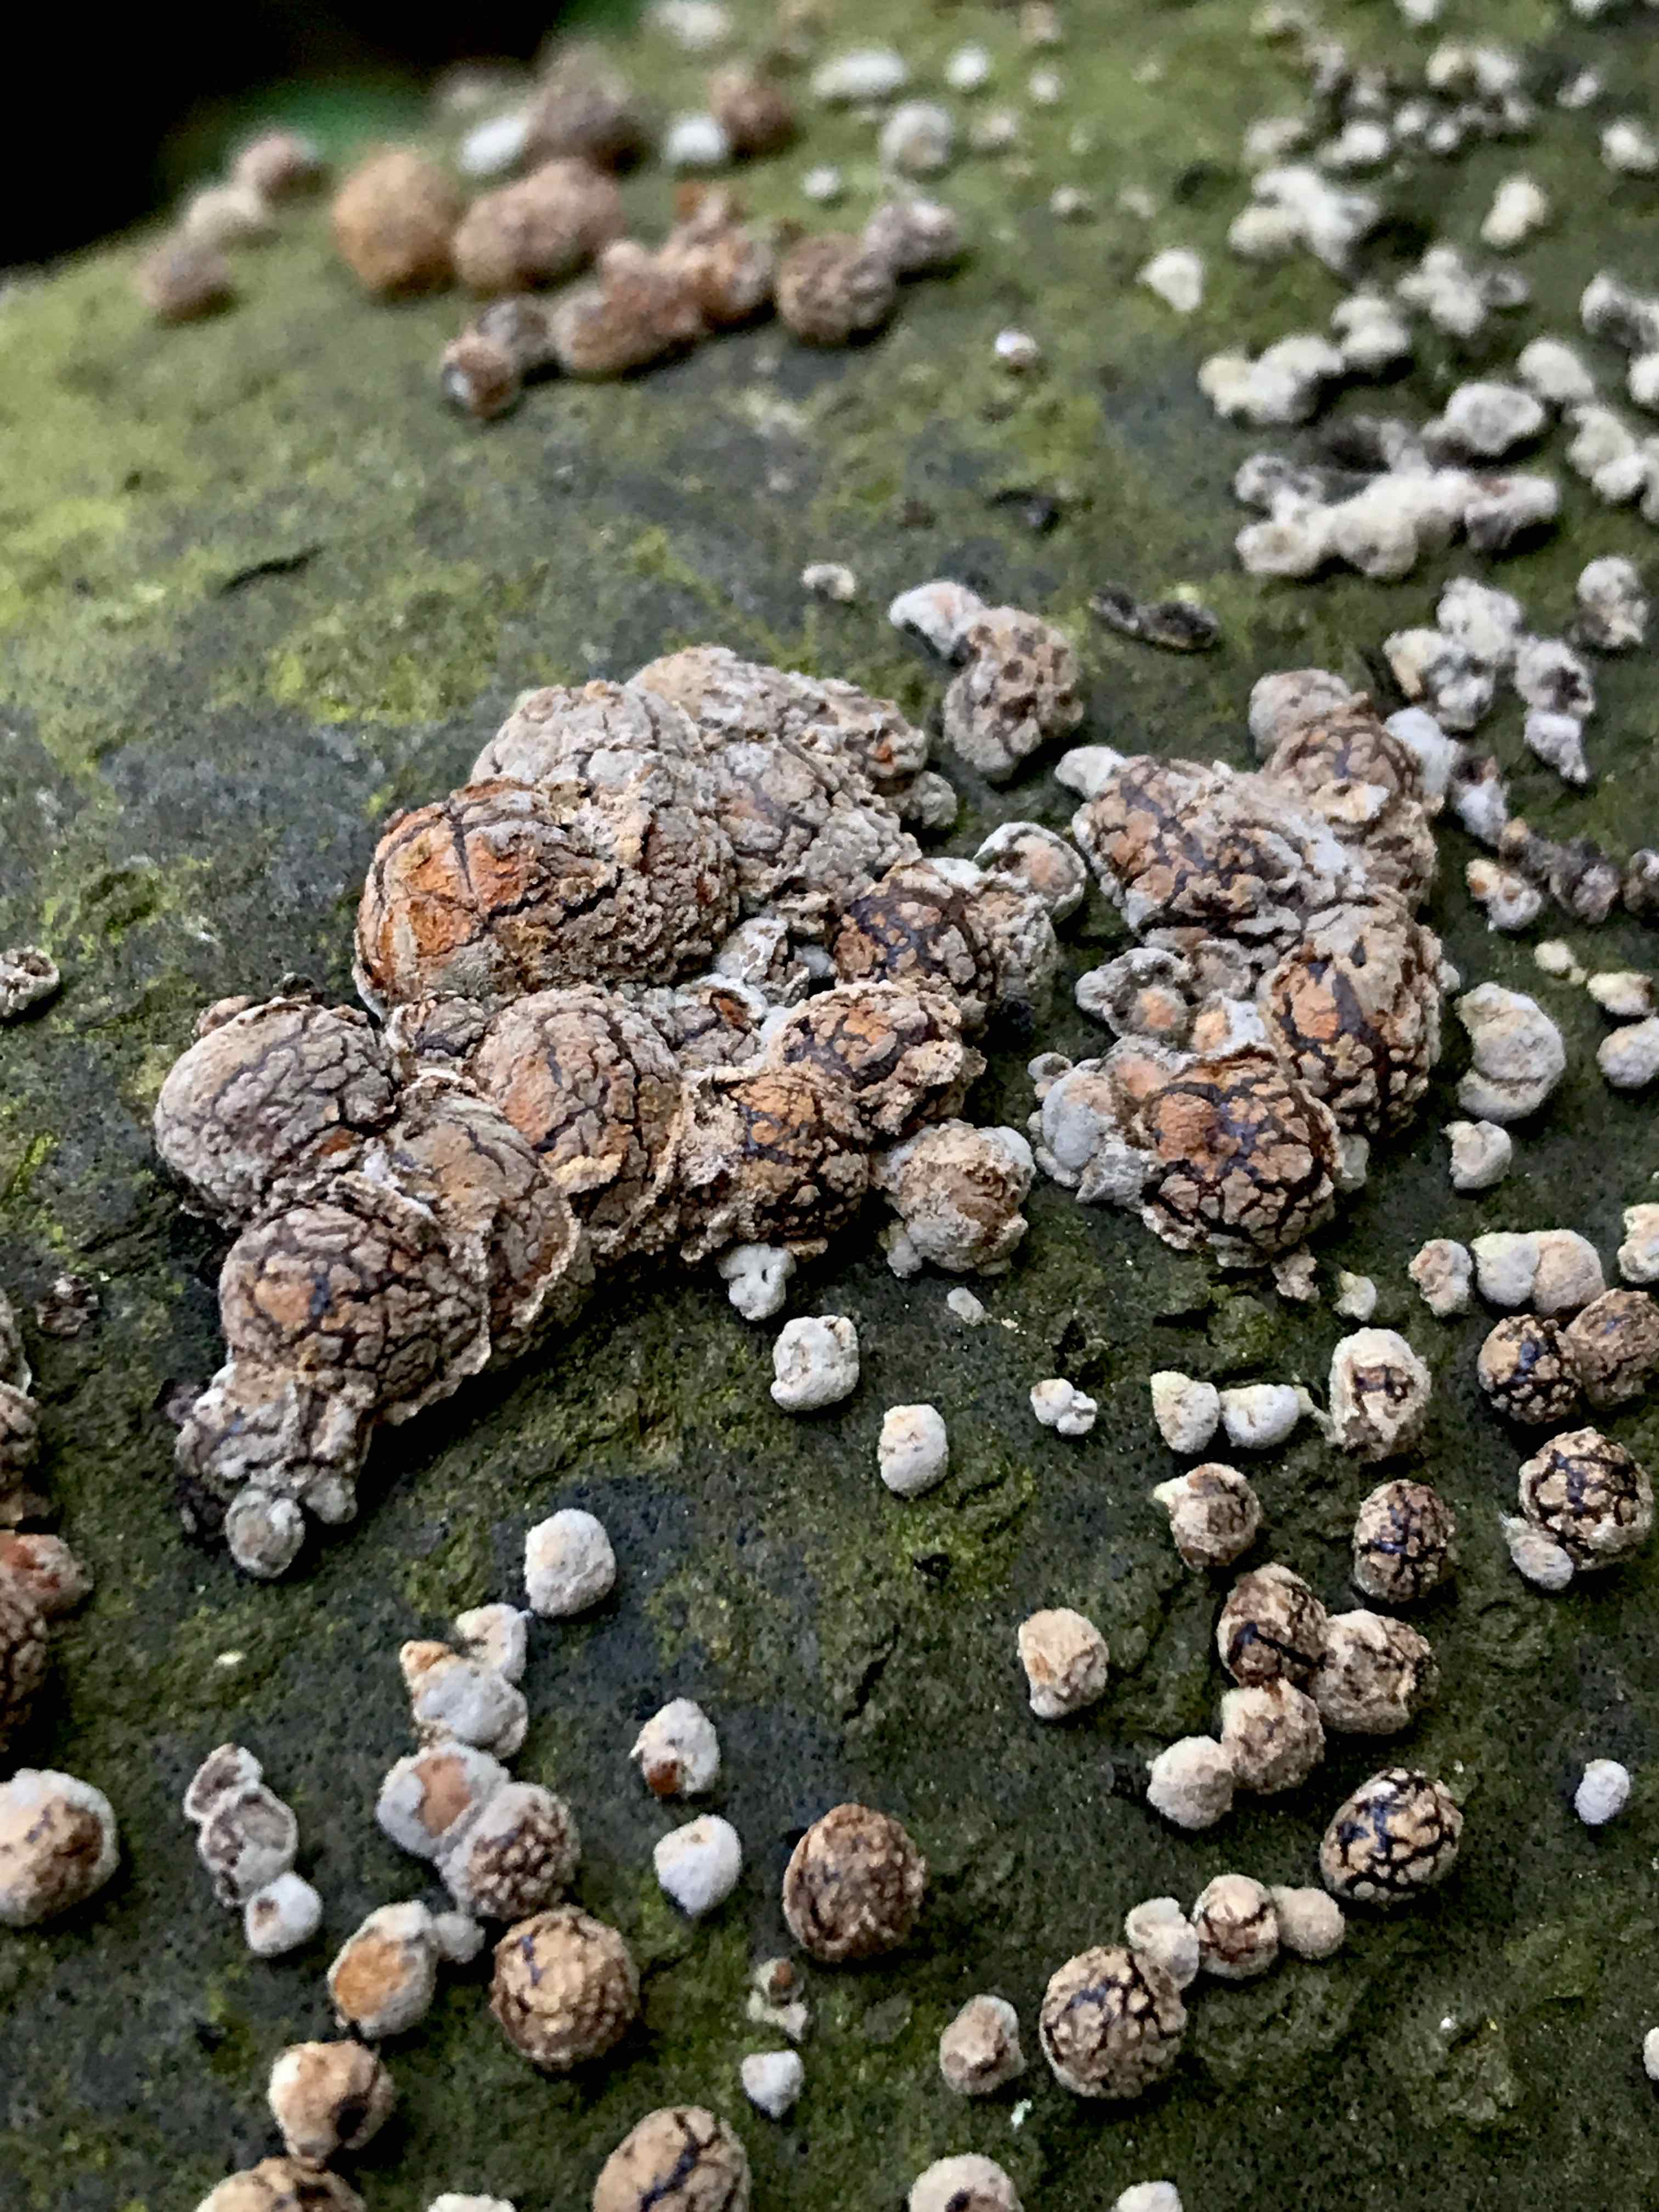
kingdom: Fungi
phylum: Ascomycota
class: Sordariomycetes
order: Xylariales
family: Hypoxylaceae
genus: Hypoxylon
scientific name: Hypoxylon fragiforme
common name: kuljordbær
